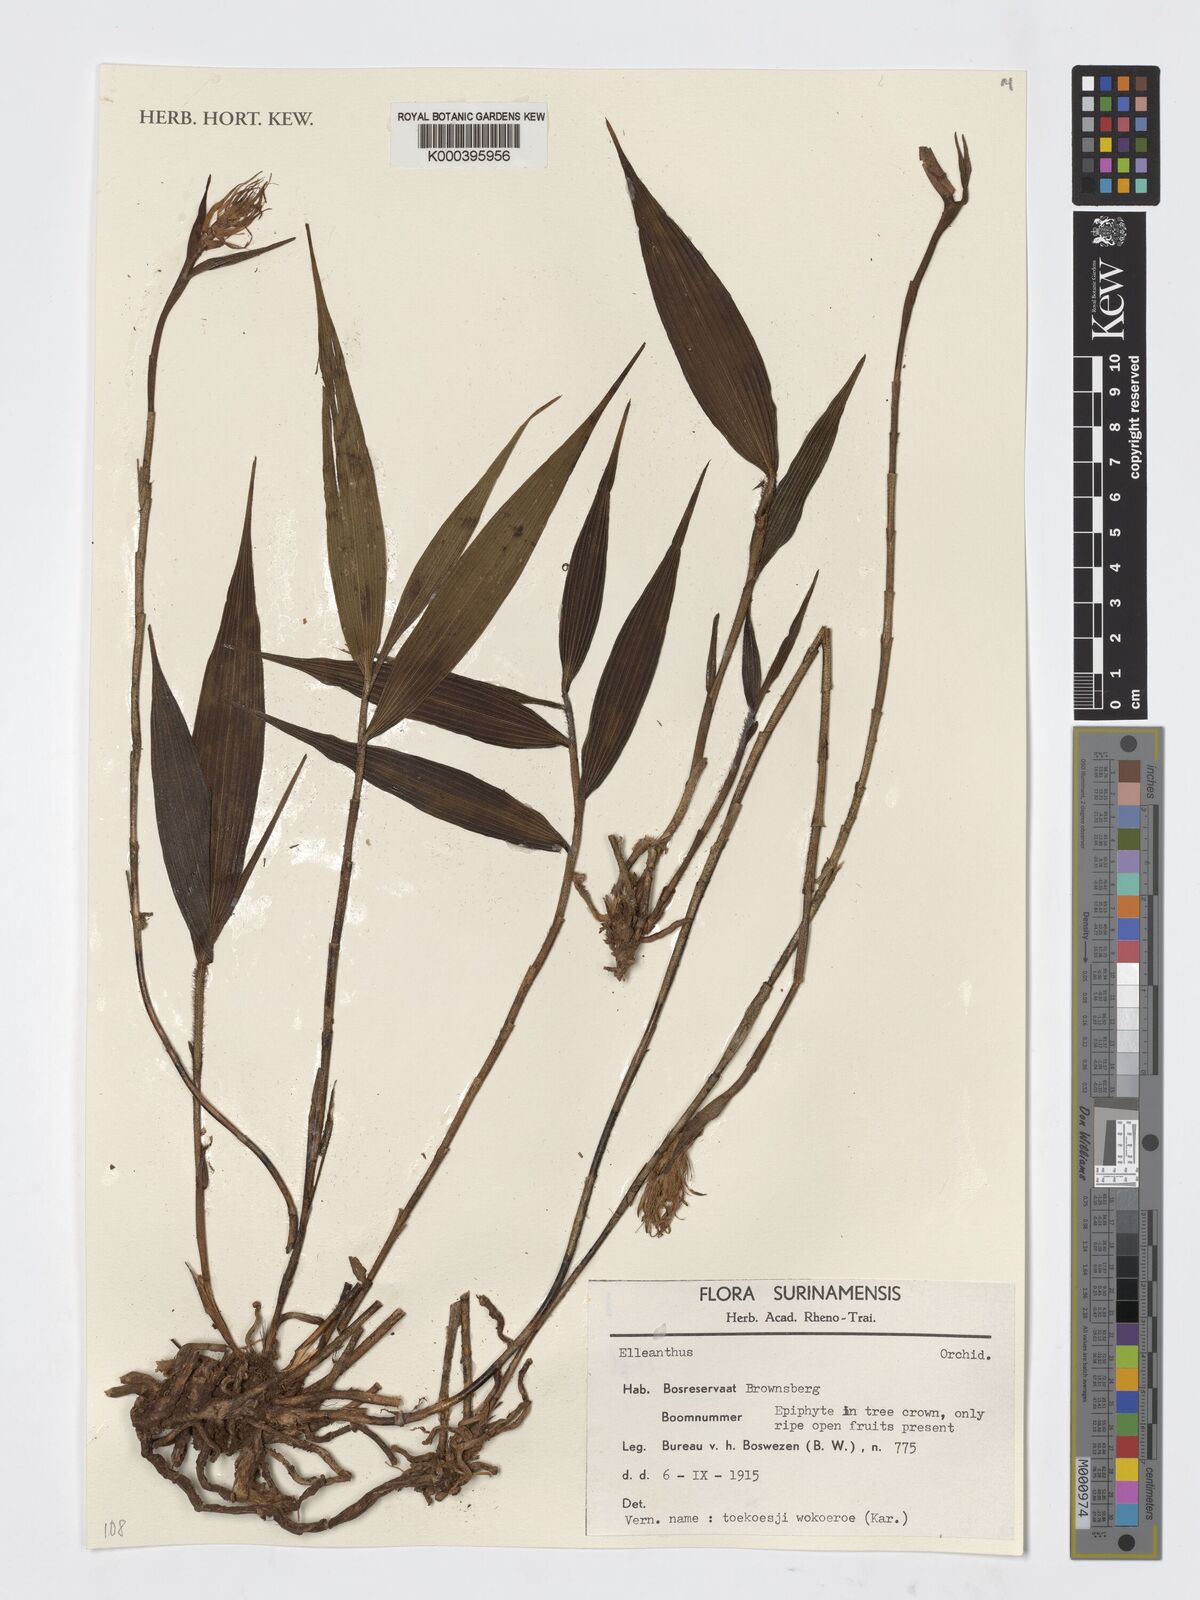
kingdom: Plantae
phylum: Tracheophyta
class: Liliopsida
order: Asparagales
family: Orchidaceae
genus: Elleanthus
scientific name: Elleanthus
